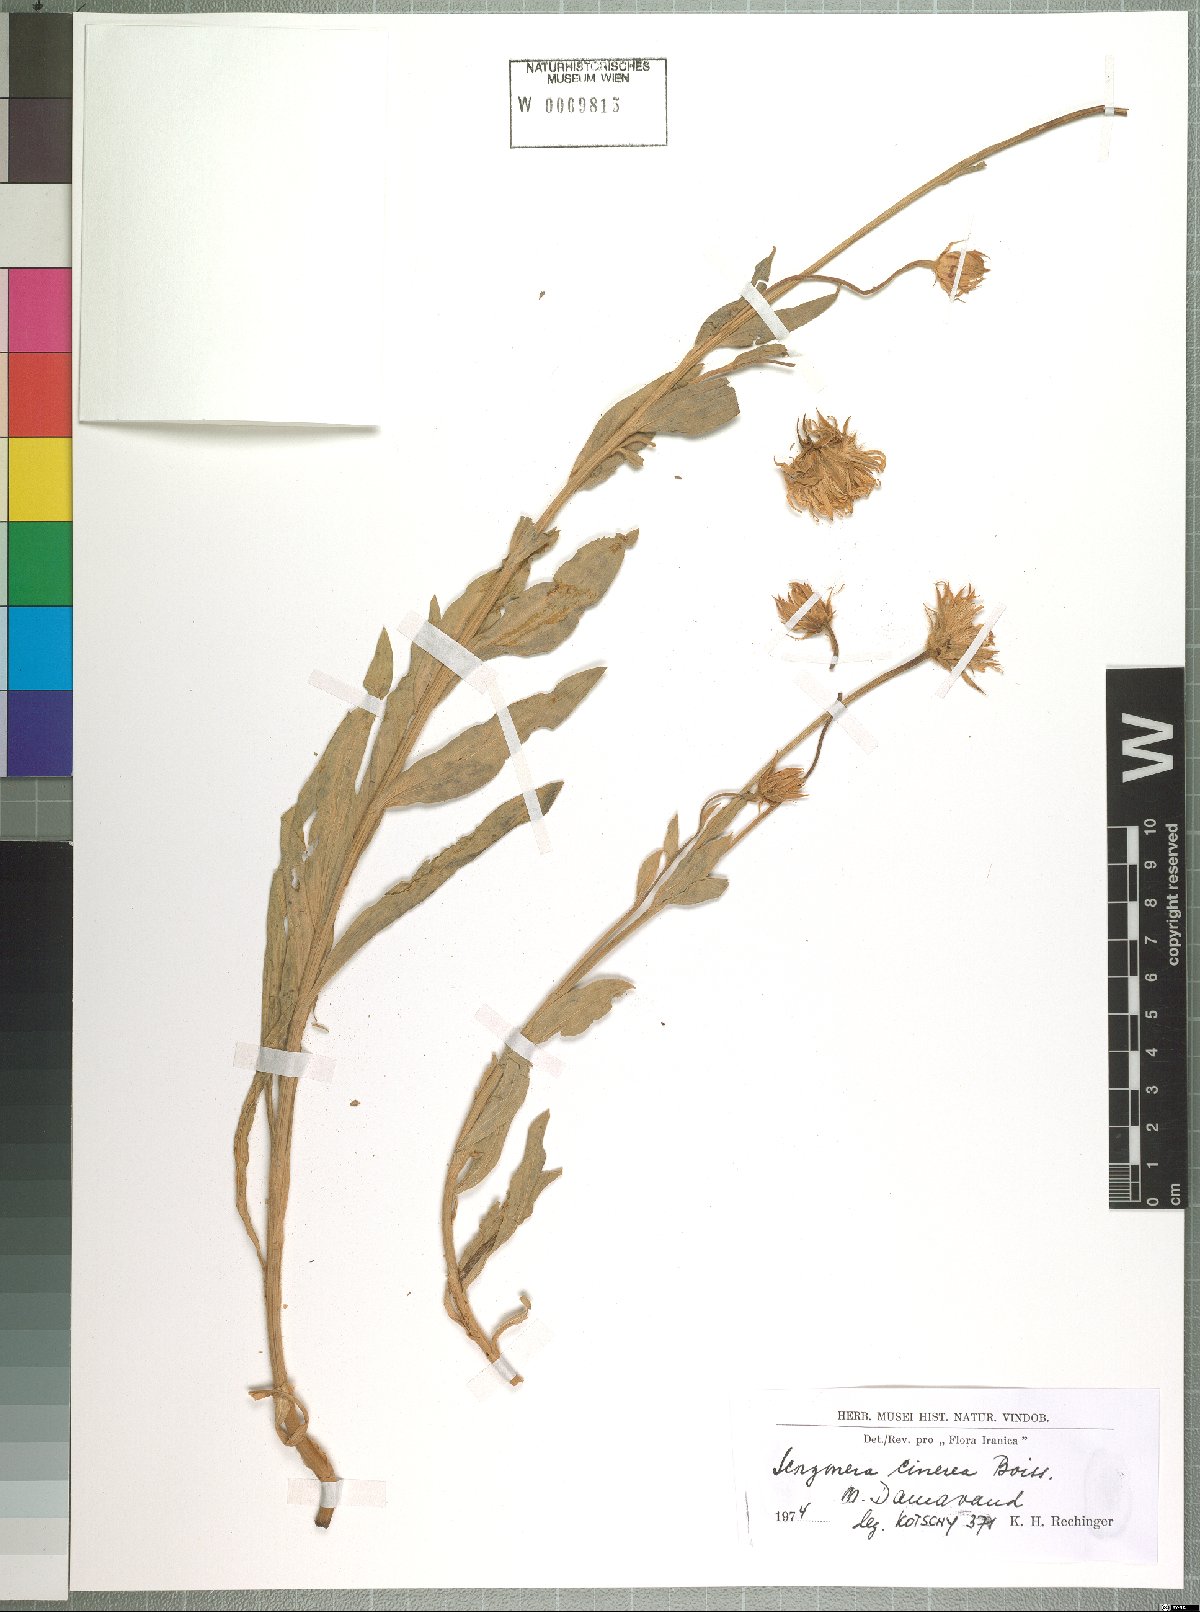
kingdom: Plantae
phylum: Tracheophyta
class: Magnoliopsida
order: Asterales
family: Asteraceae
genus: Cigdemia
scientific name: Cigdemia cinerea
